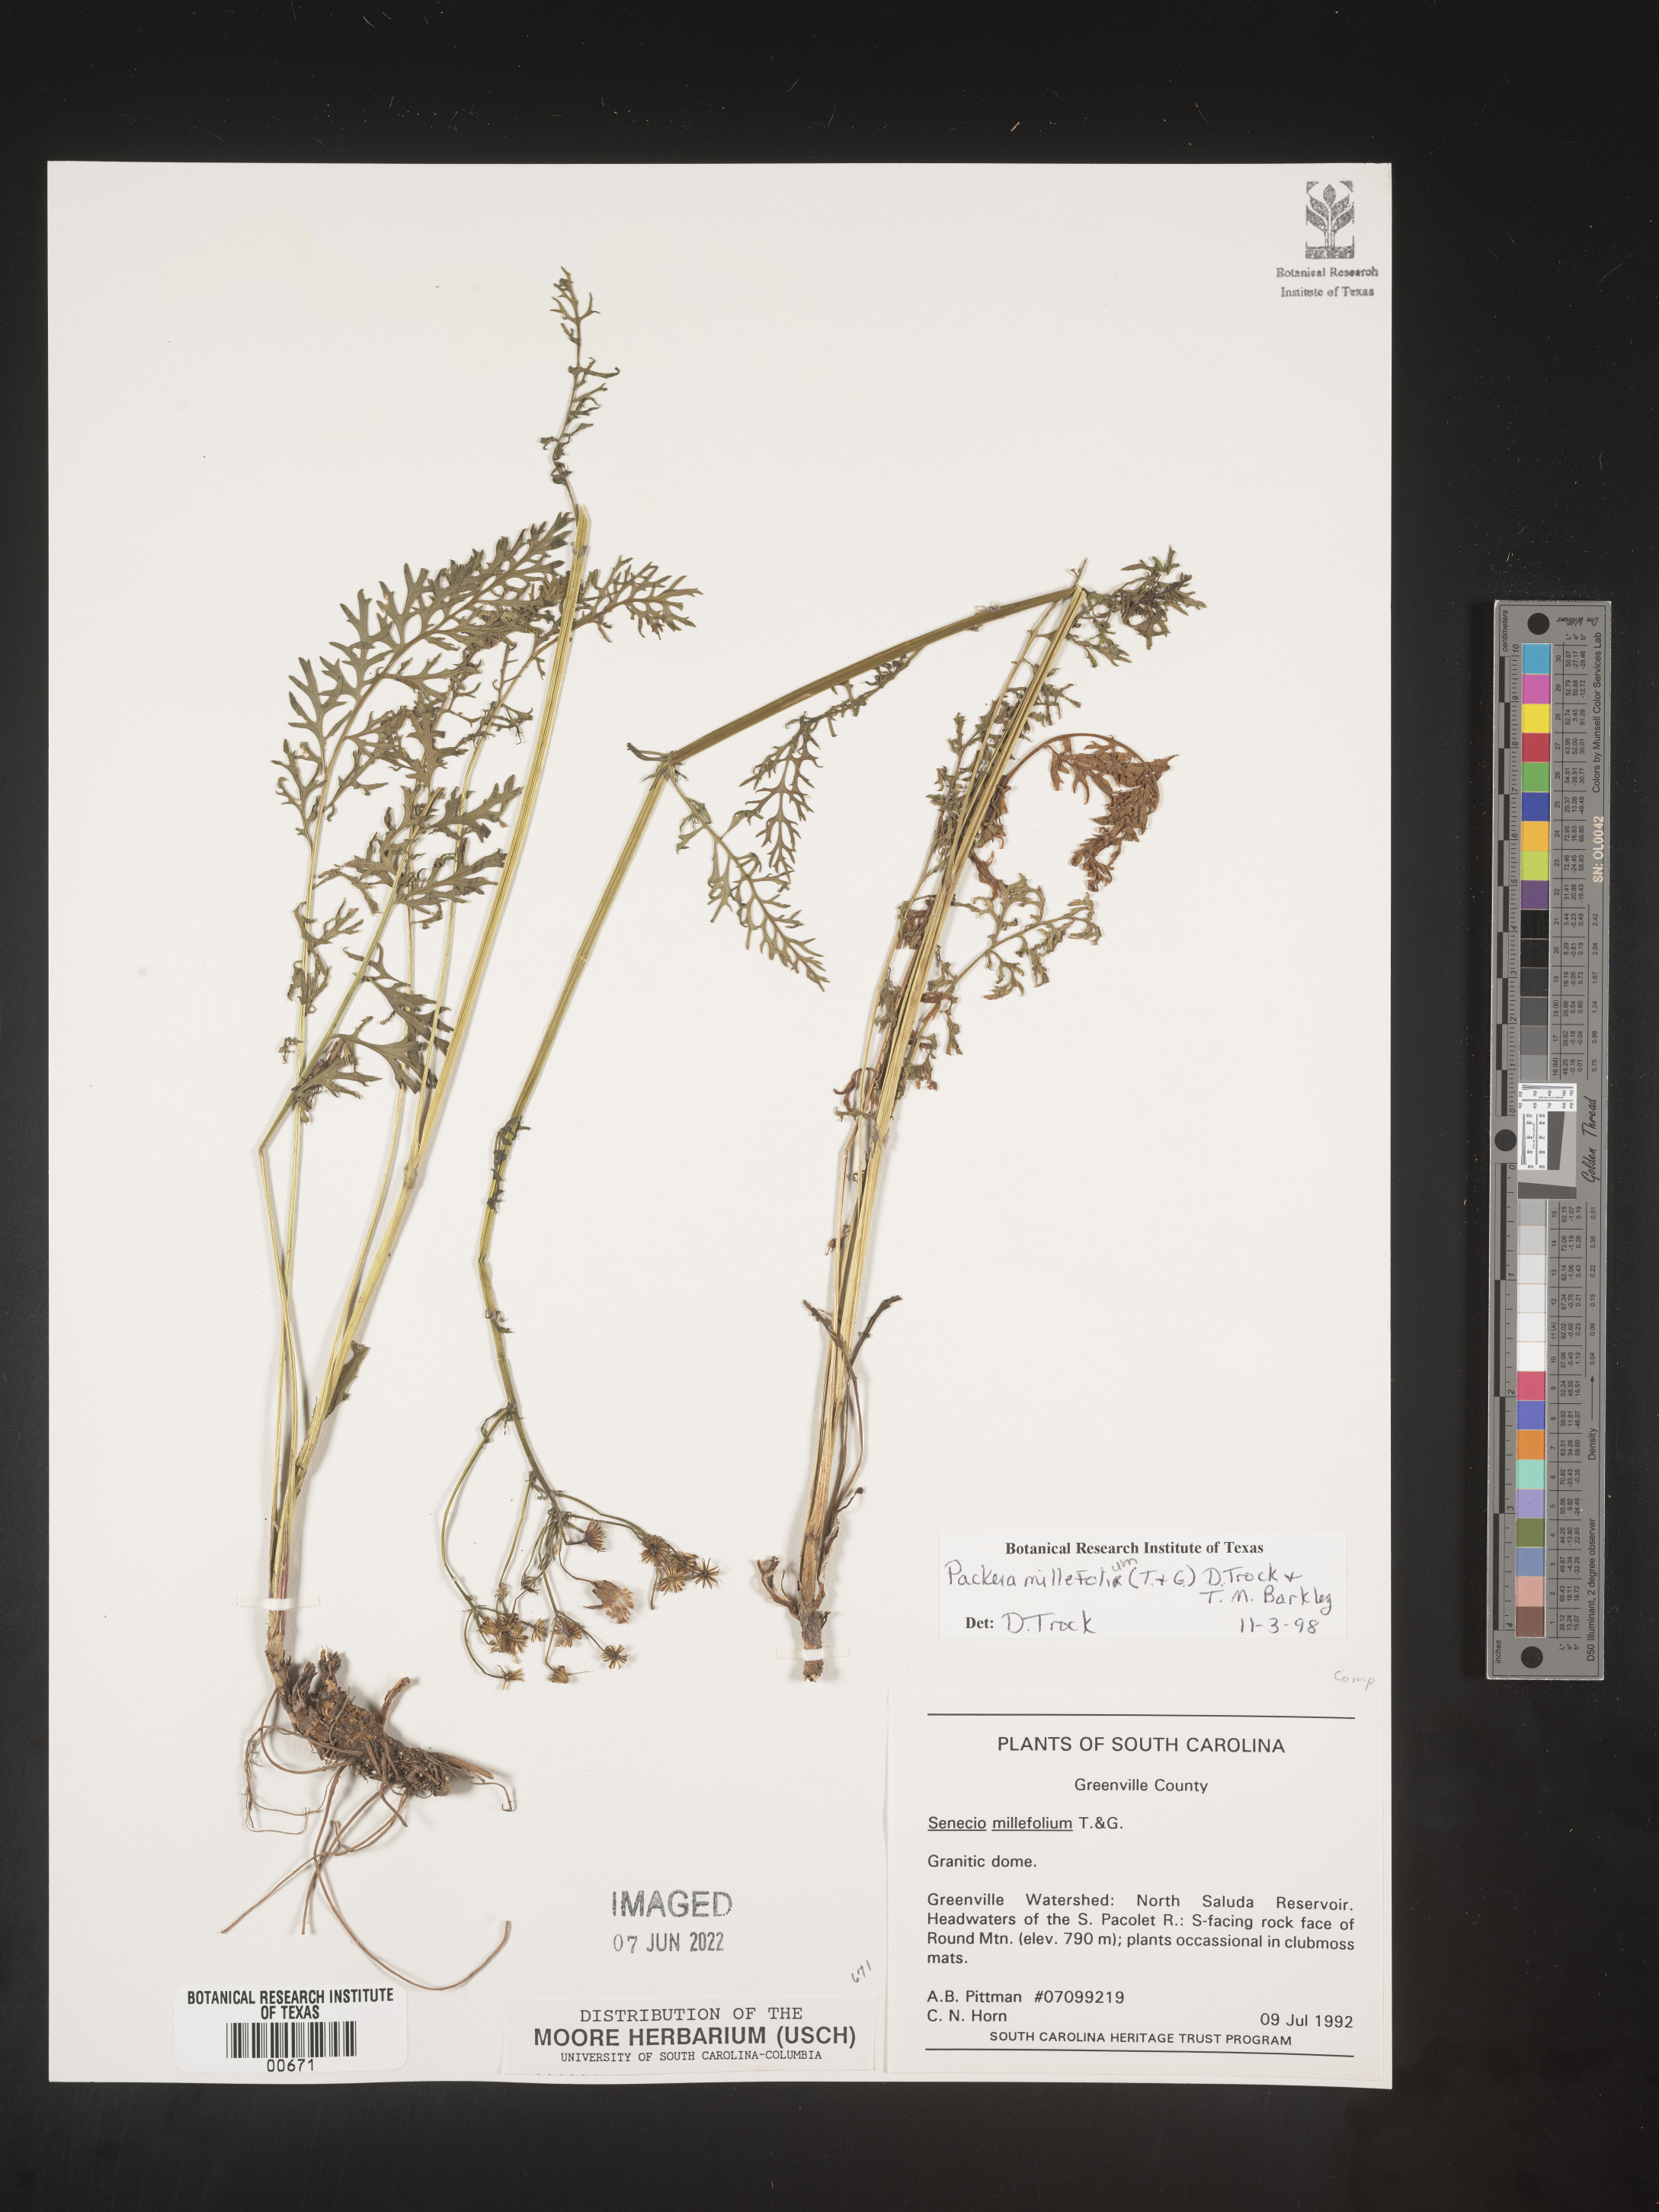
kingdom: Plantae
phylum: Tracheophyta
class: Magnoliopsida
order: Asterales
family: Asteraceae
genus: Packera
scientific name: Packera millefolia
